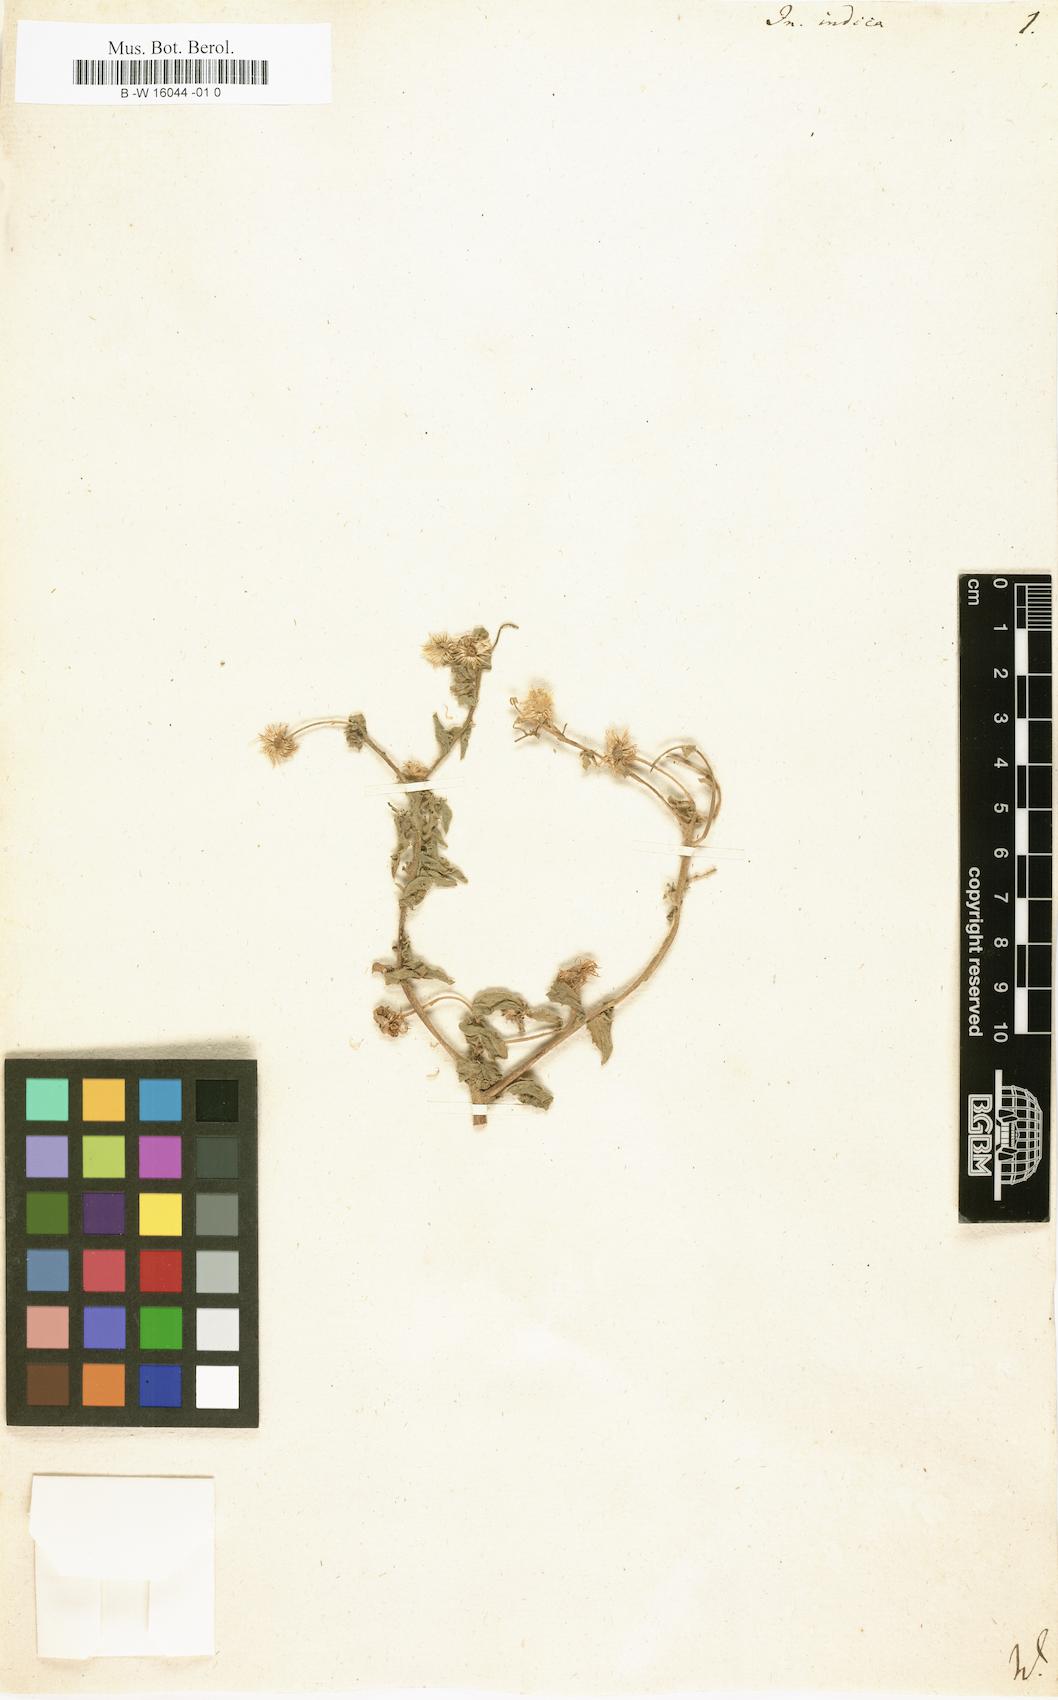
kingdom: Plantae
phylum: Tracheophyta
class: Magnoliopsida
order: Asterales
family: Asteraceae
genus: Inula
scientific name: Inula indica
